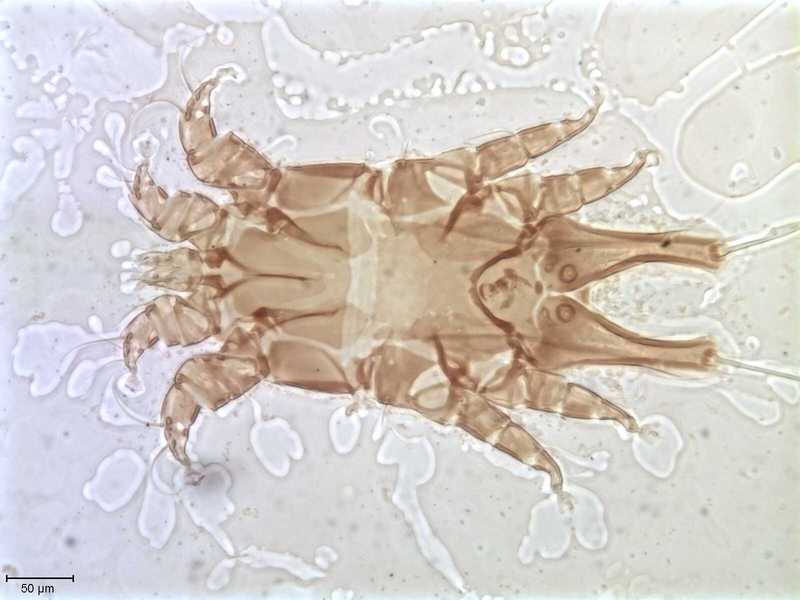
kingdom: Animalia
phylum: Arthropoda
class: Arachnida
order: Sarcoptiformes
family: Alloptidae
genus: Brephosceles
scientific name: Brephosceles
